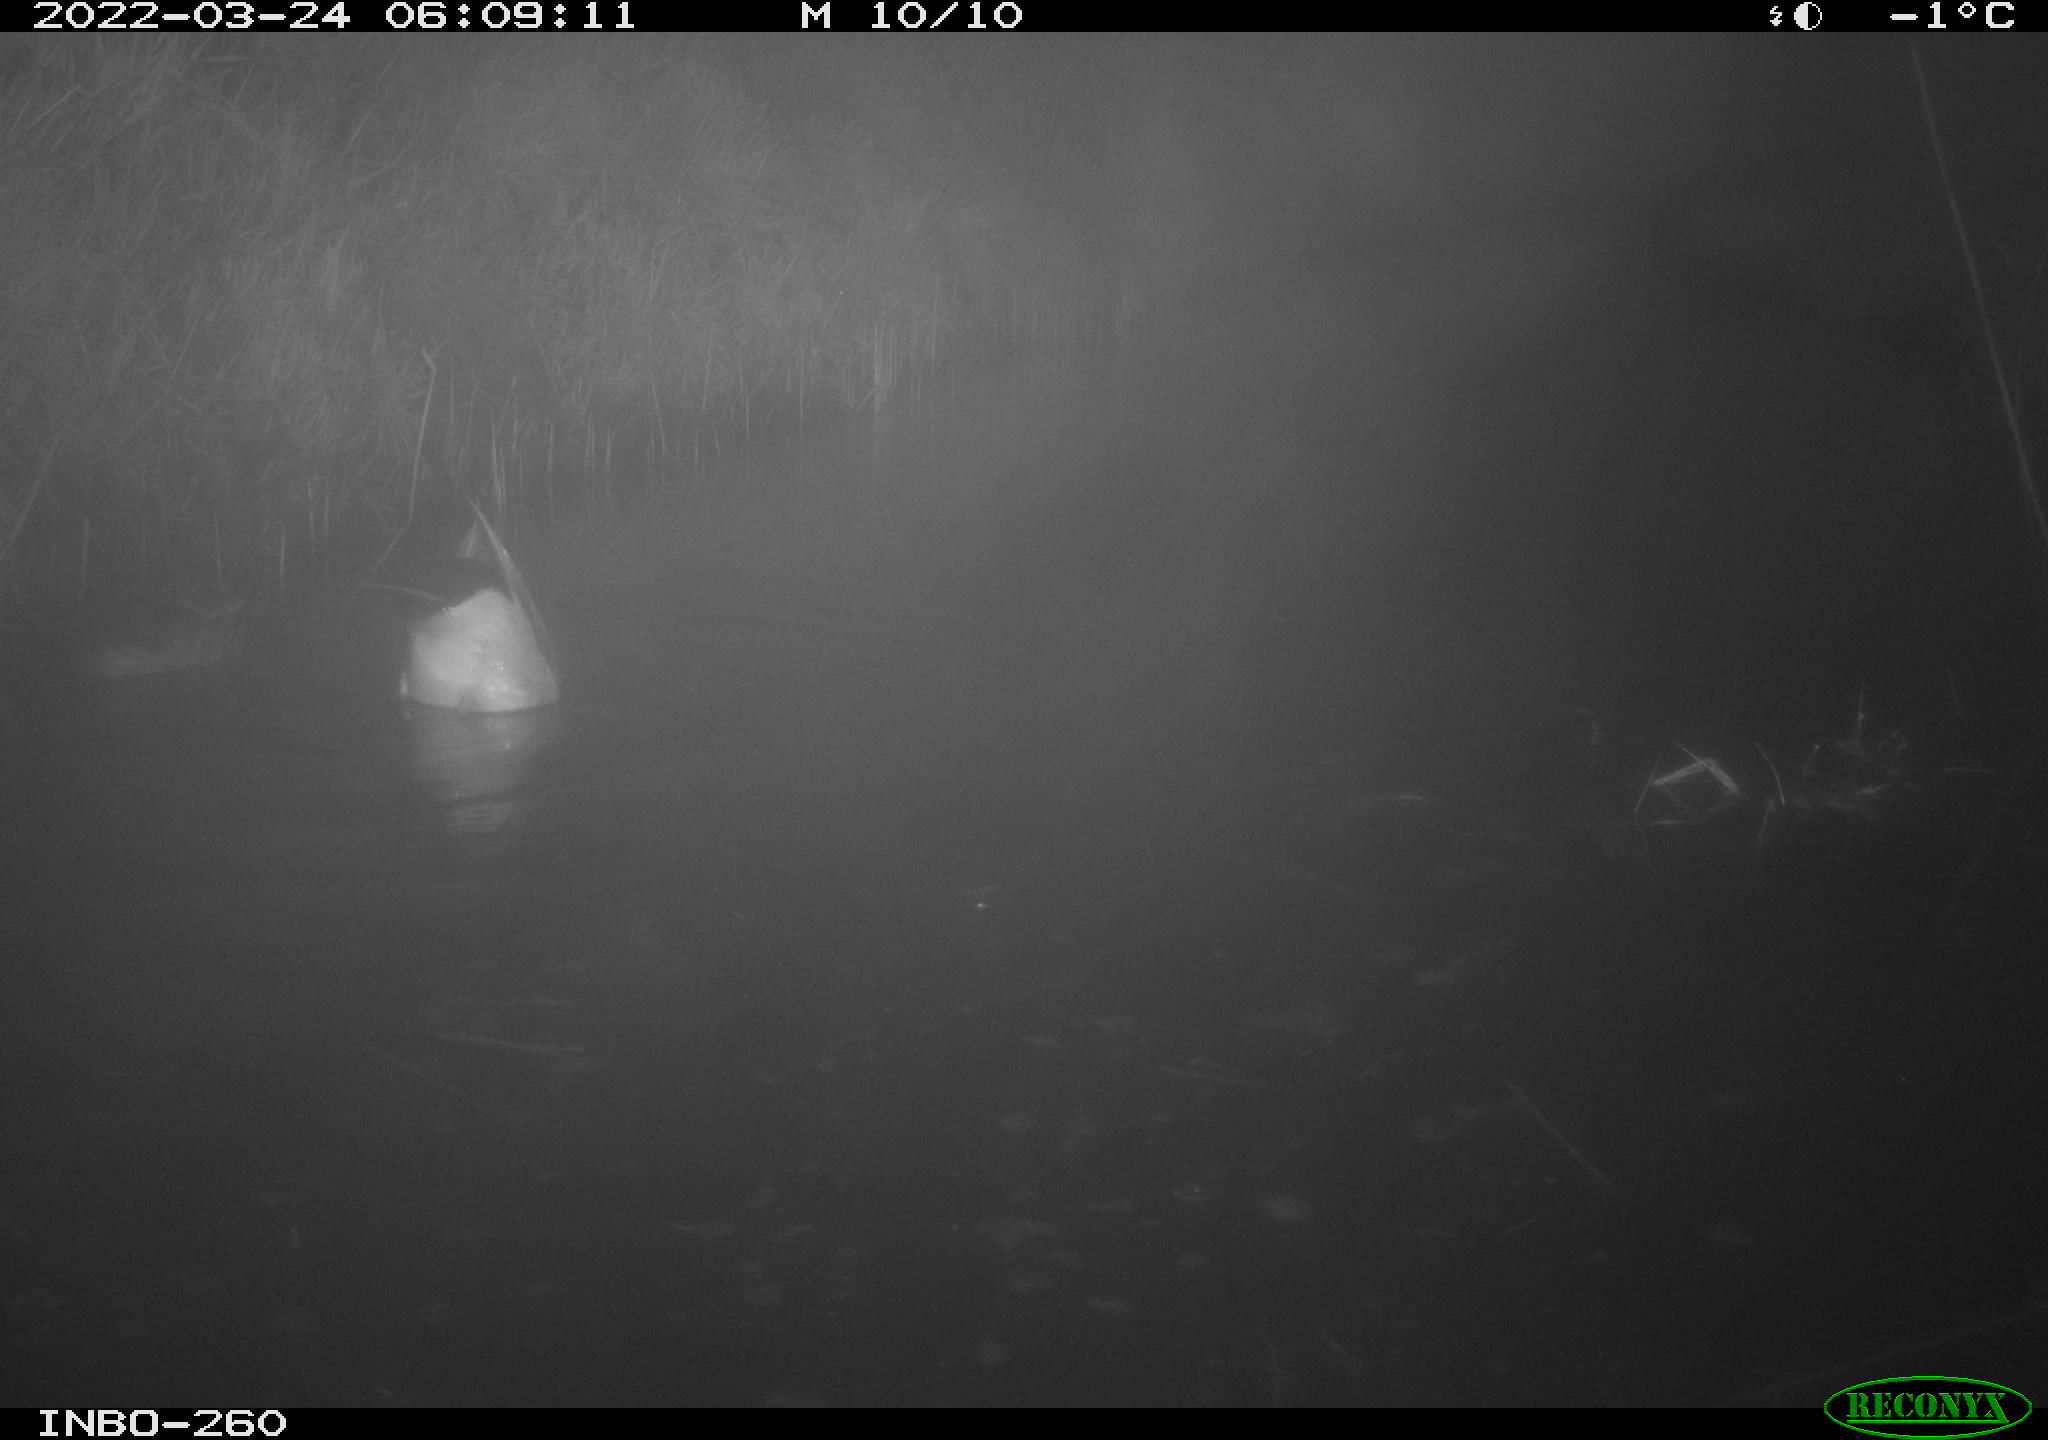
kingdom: Animalia
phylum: Chordata
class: Aves
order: Anseriformes
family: Anatidae
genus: Anas
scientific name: Anas platyrhynchos
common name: Mallard
